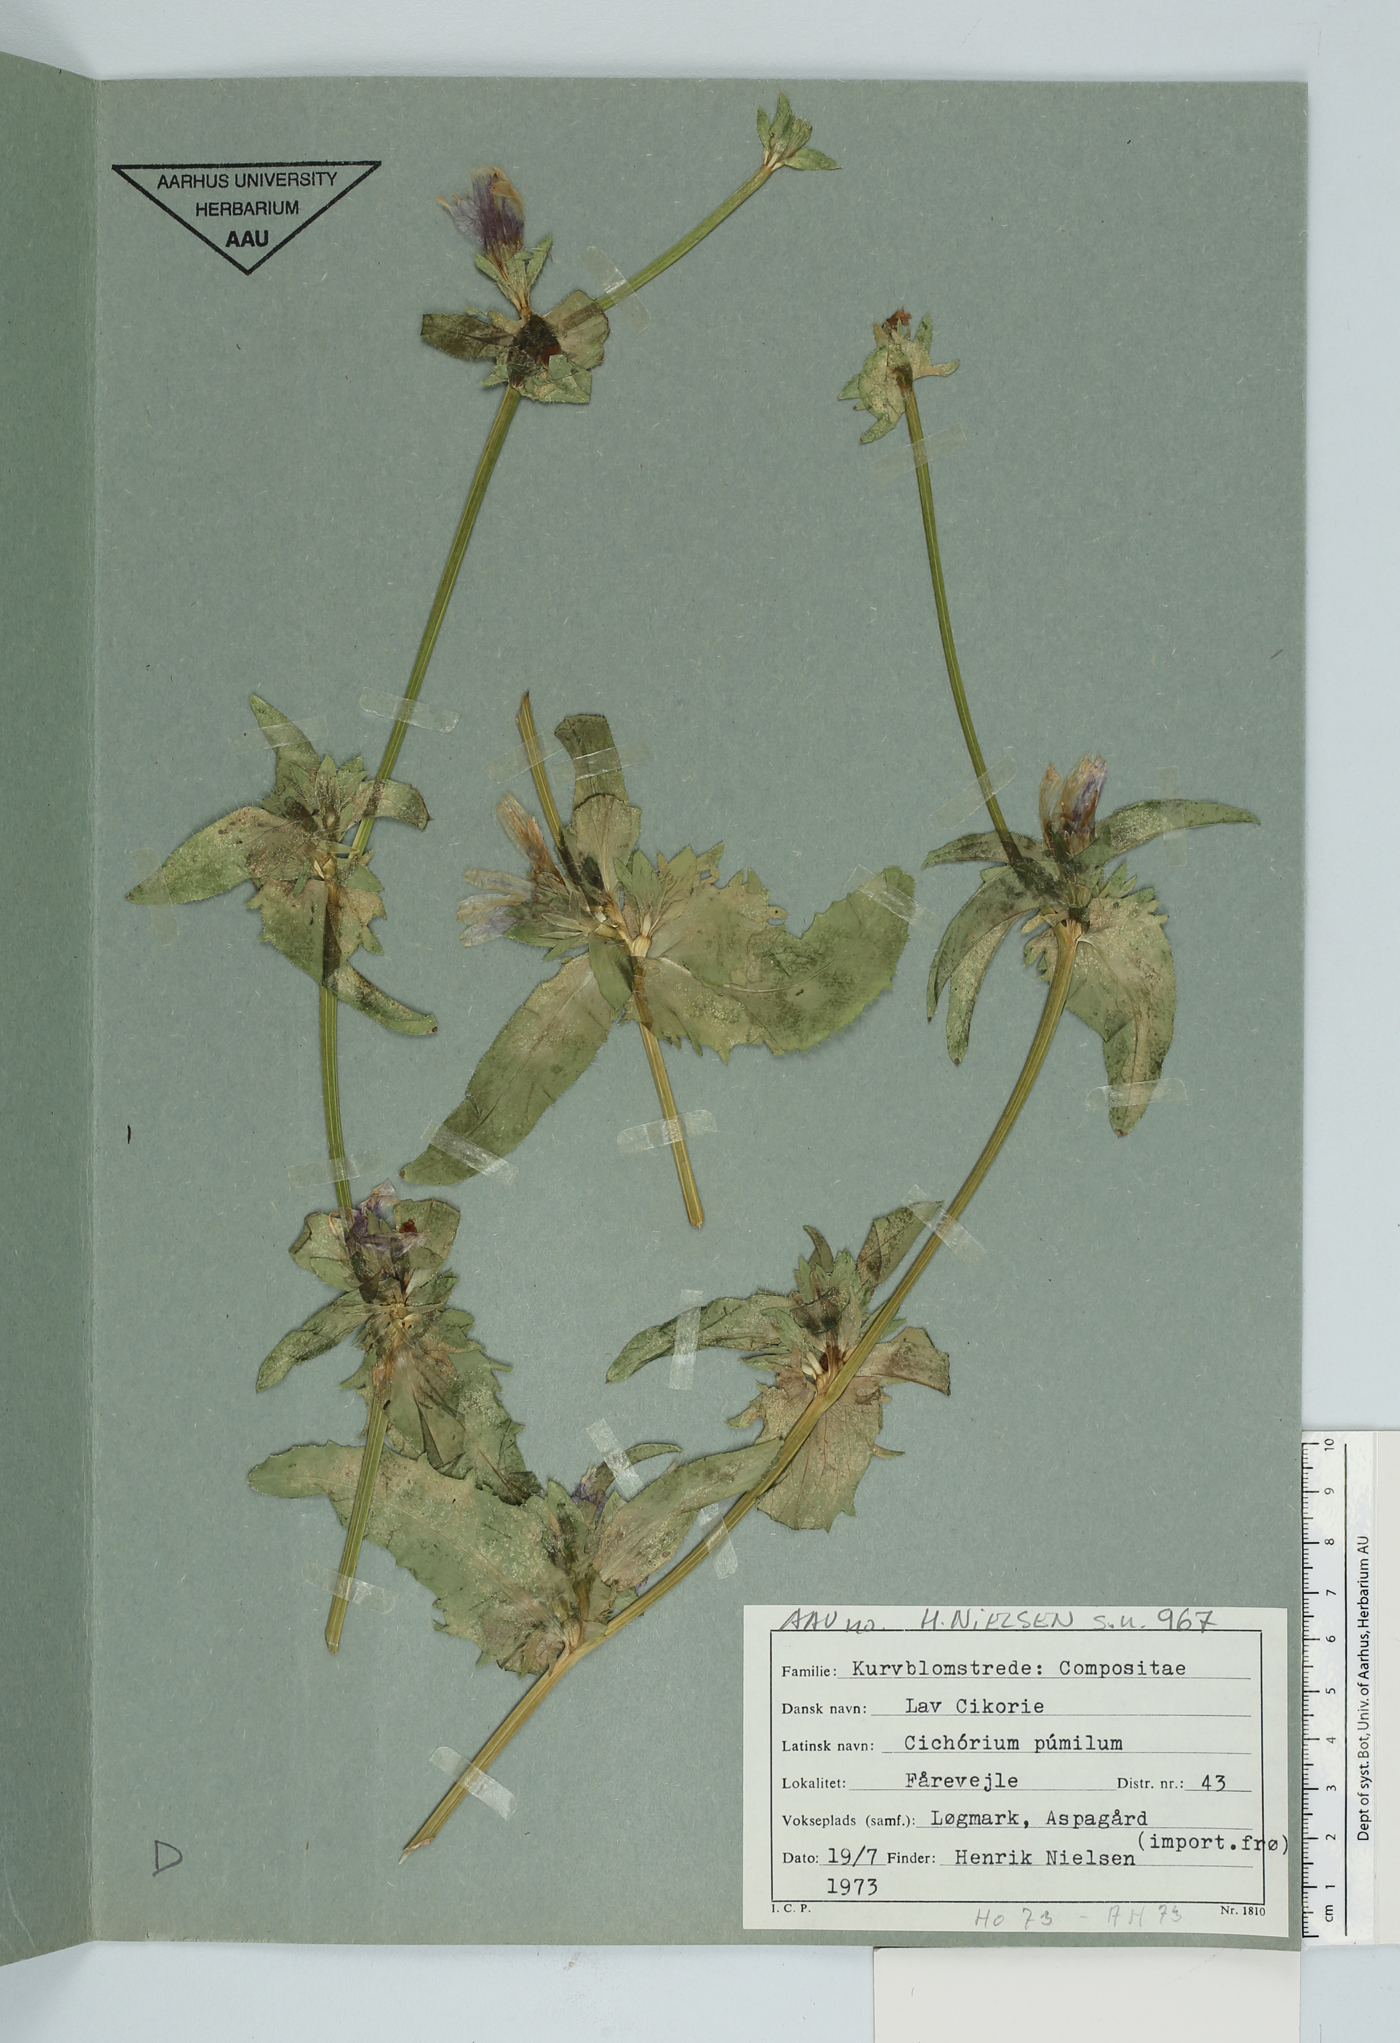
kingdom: Plantae
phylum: Tracheophyta
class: Magnoliopsida
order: Asterales
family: Asteraceae
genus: Cichorium
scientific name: Cichorium pumilum
